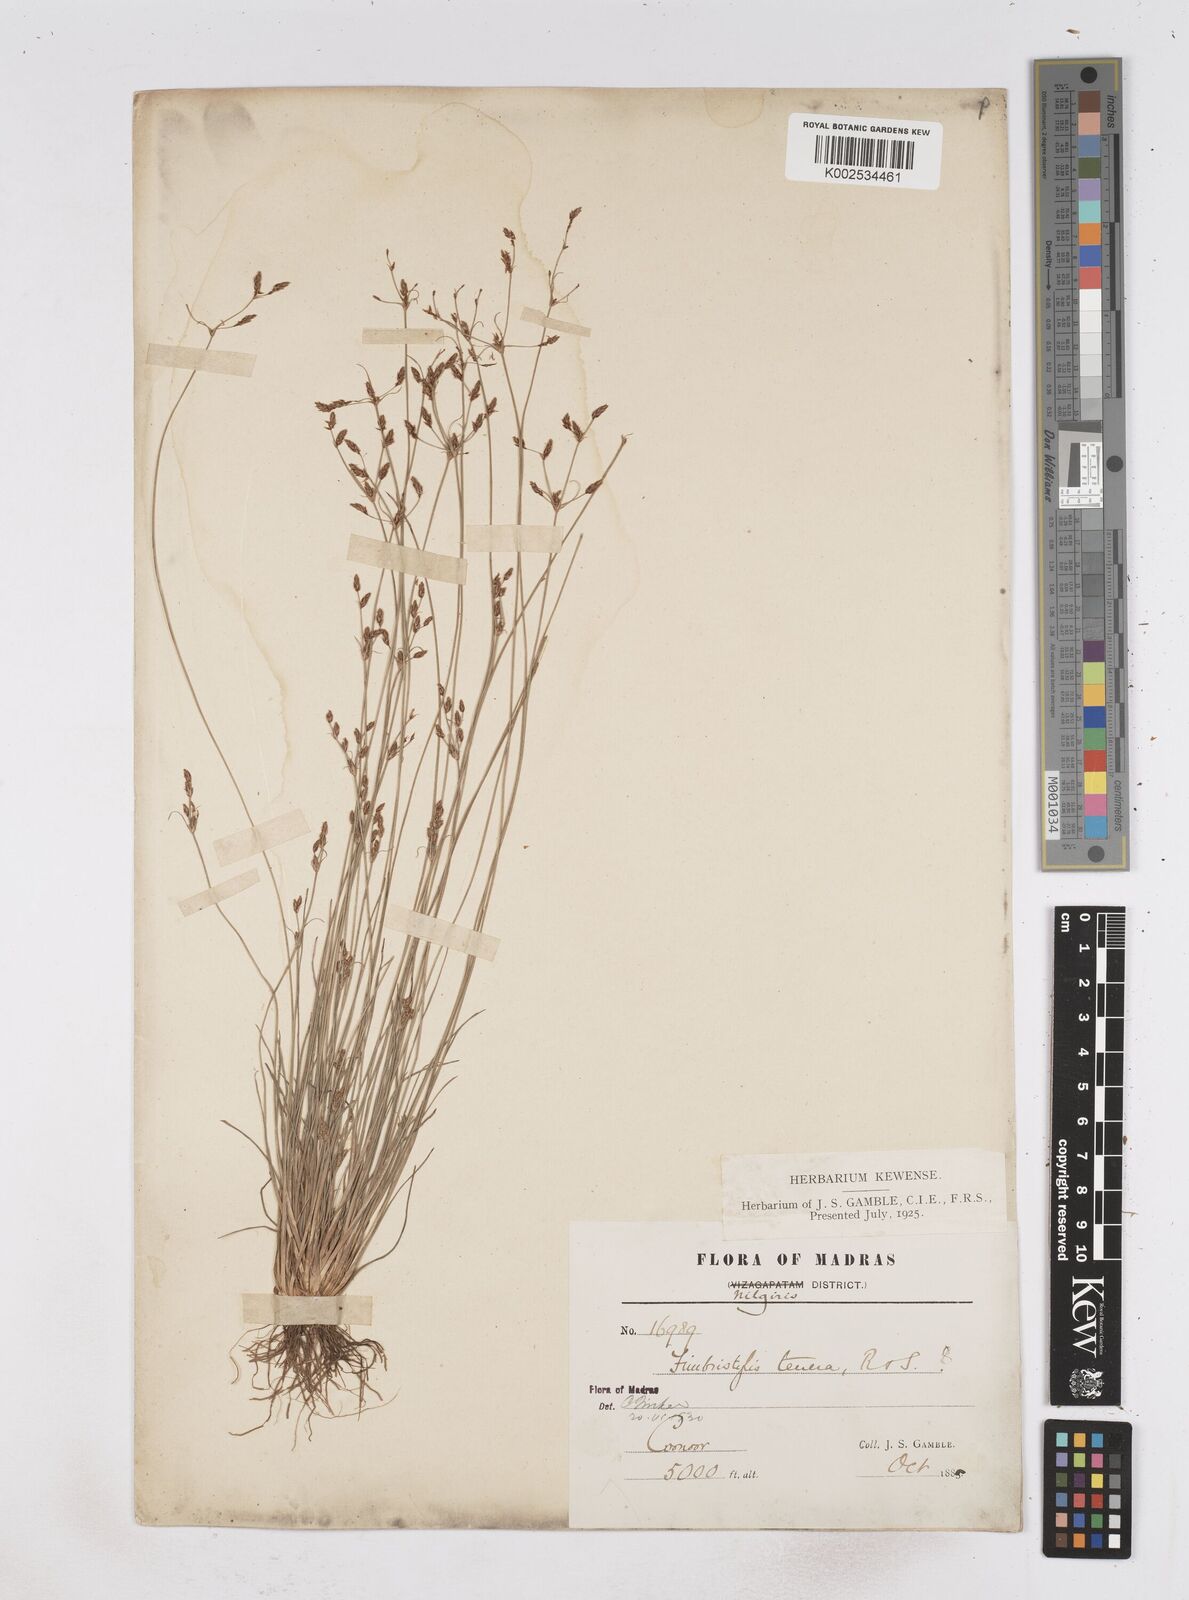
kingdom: Plantae
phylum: Tracheophyta
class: Liliopsida
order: Poales
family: Cyperaceae
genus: Fimbristylis
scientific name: Fimbristylis tenera
